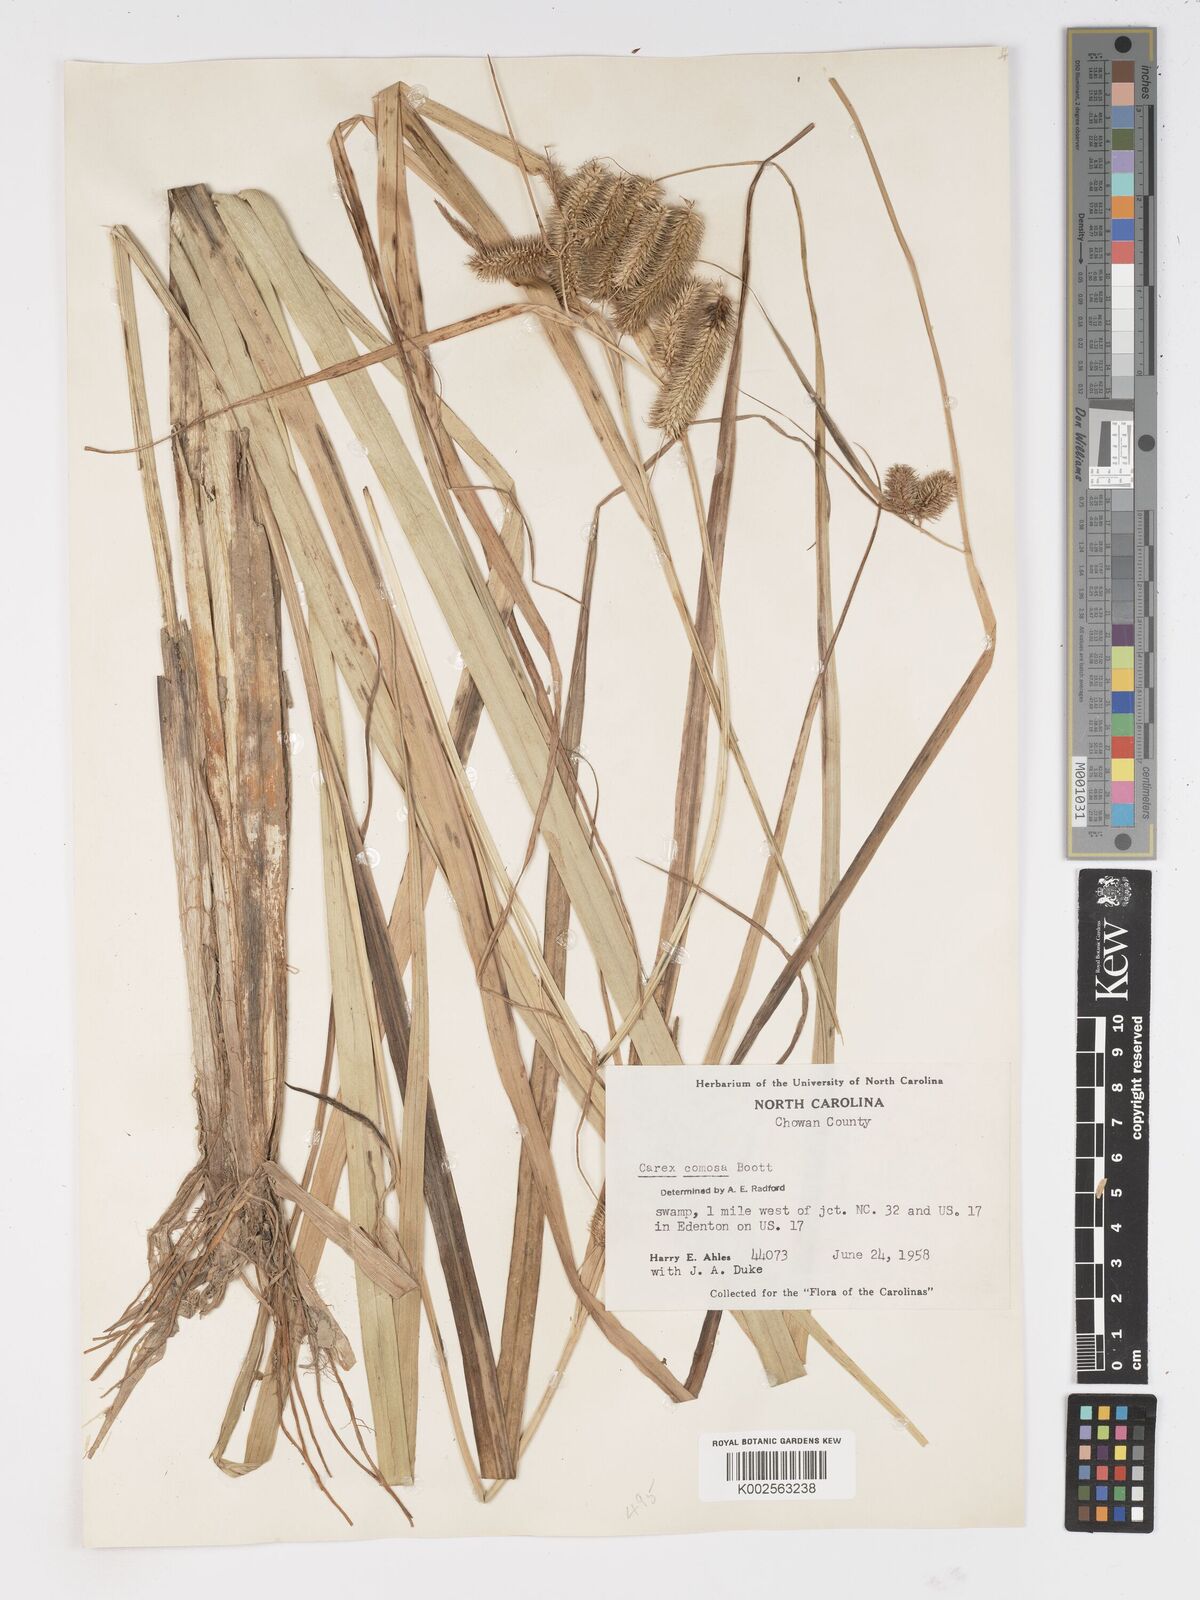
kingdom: Plantae
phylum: Tracheophyta
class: Liliopsida
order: Poales
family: Cyperaceae
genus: Carex
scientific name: Carex comosa
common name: Bristly sedge
